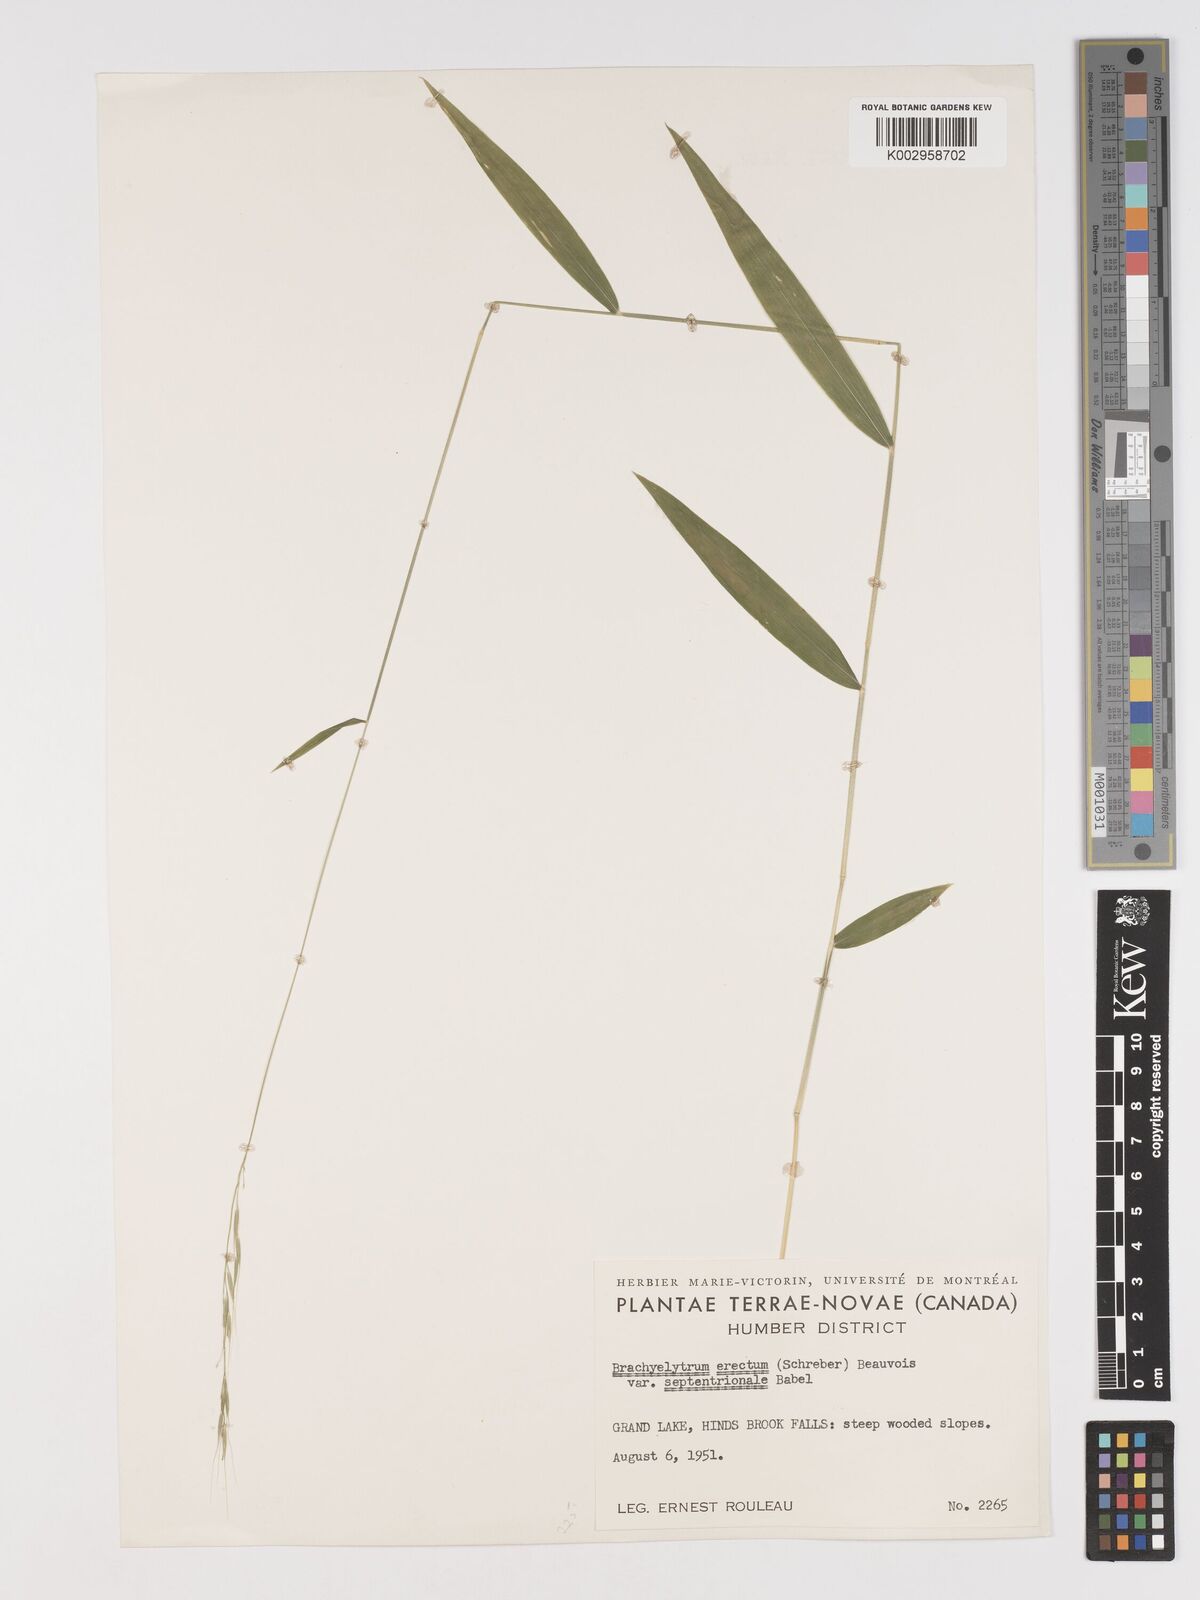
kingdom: Plantae
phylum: Tracheophyta
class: Liliopsida
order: Poales
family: Poaceae
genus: Brachyelytrum
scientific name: Brachyelytrum aristosum
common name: Northern shorthusk
